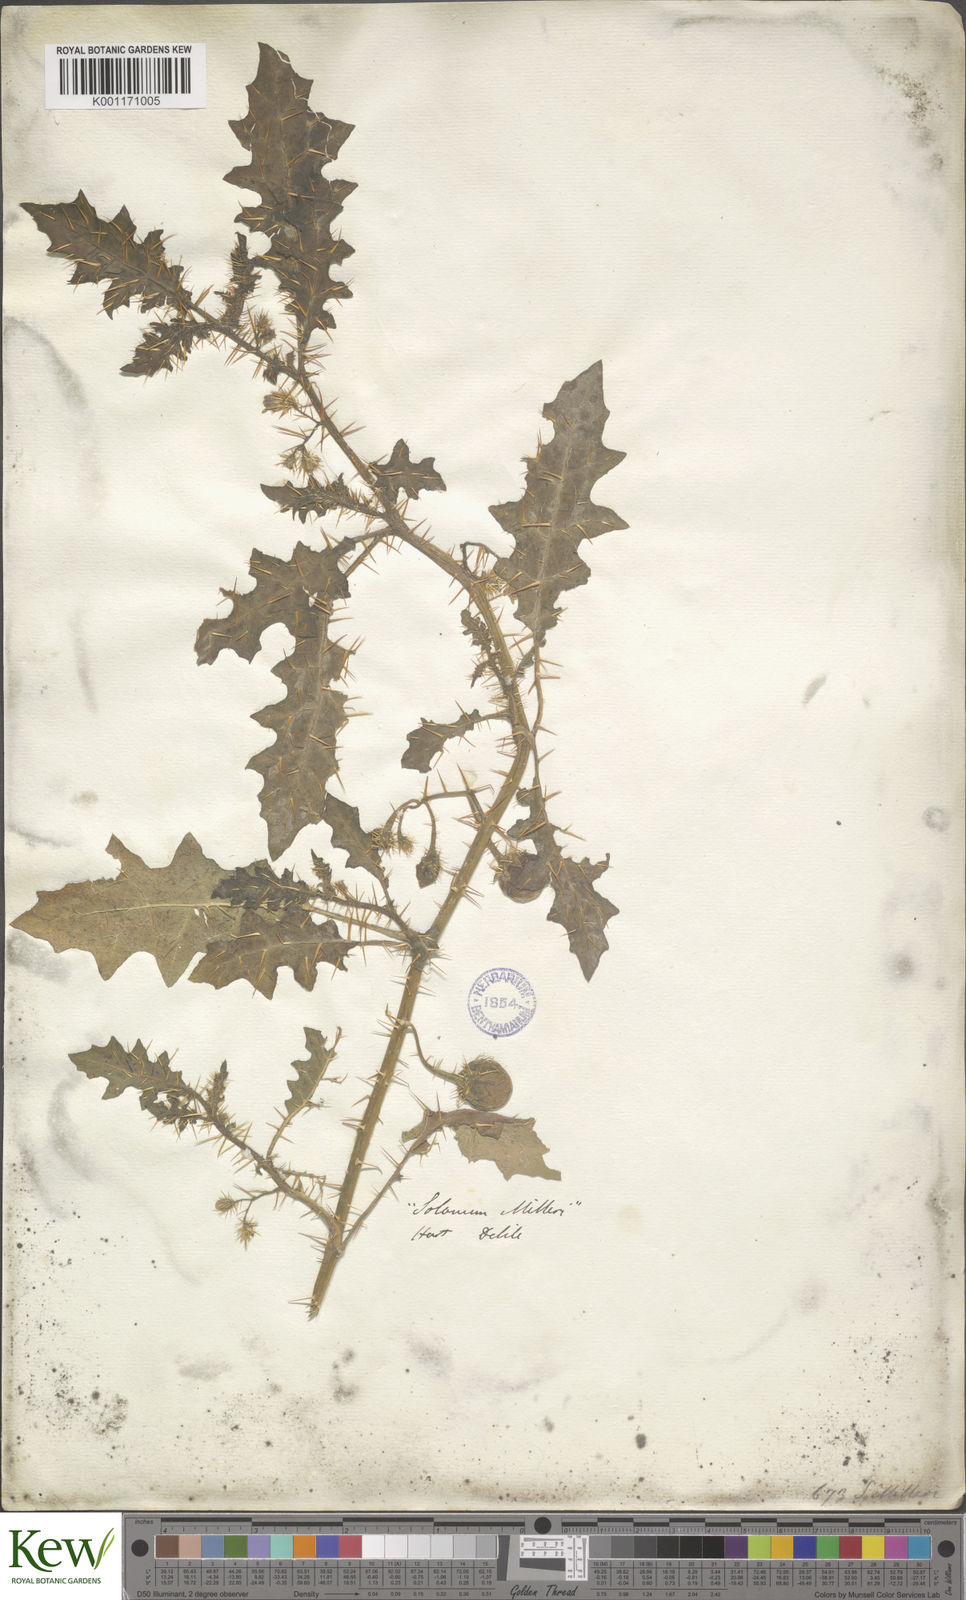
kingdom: Plantae
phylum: Tracheophyta
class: Magnoliopsida
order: Solanales
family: Solanaceae
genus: Solanum
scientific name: Solanum
